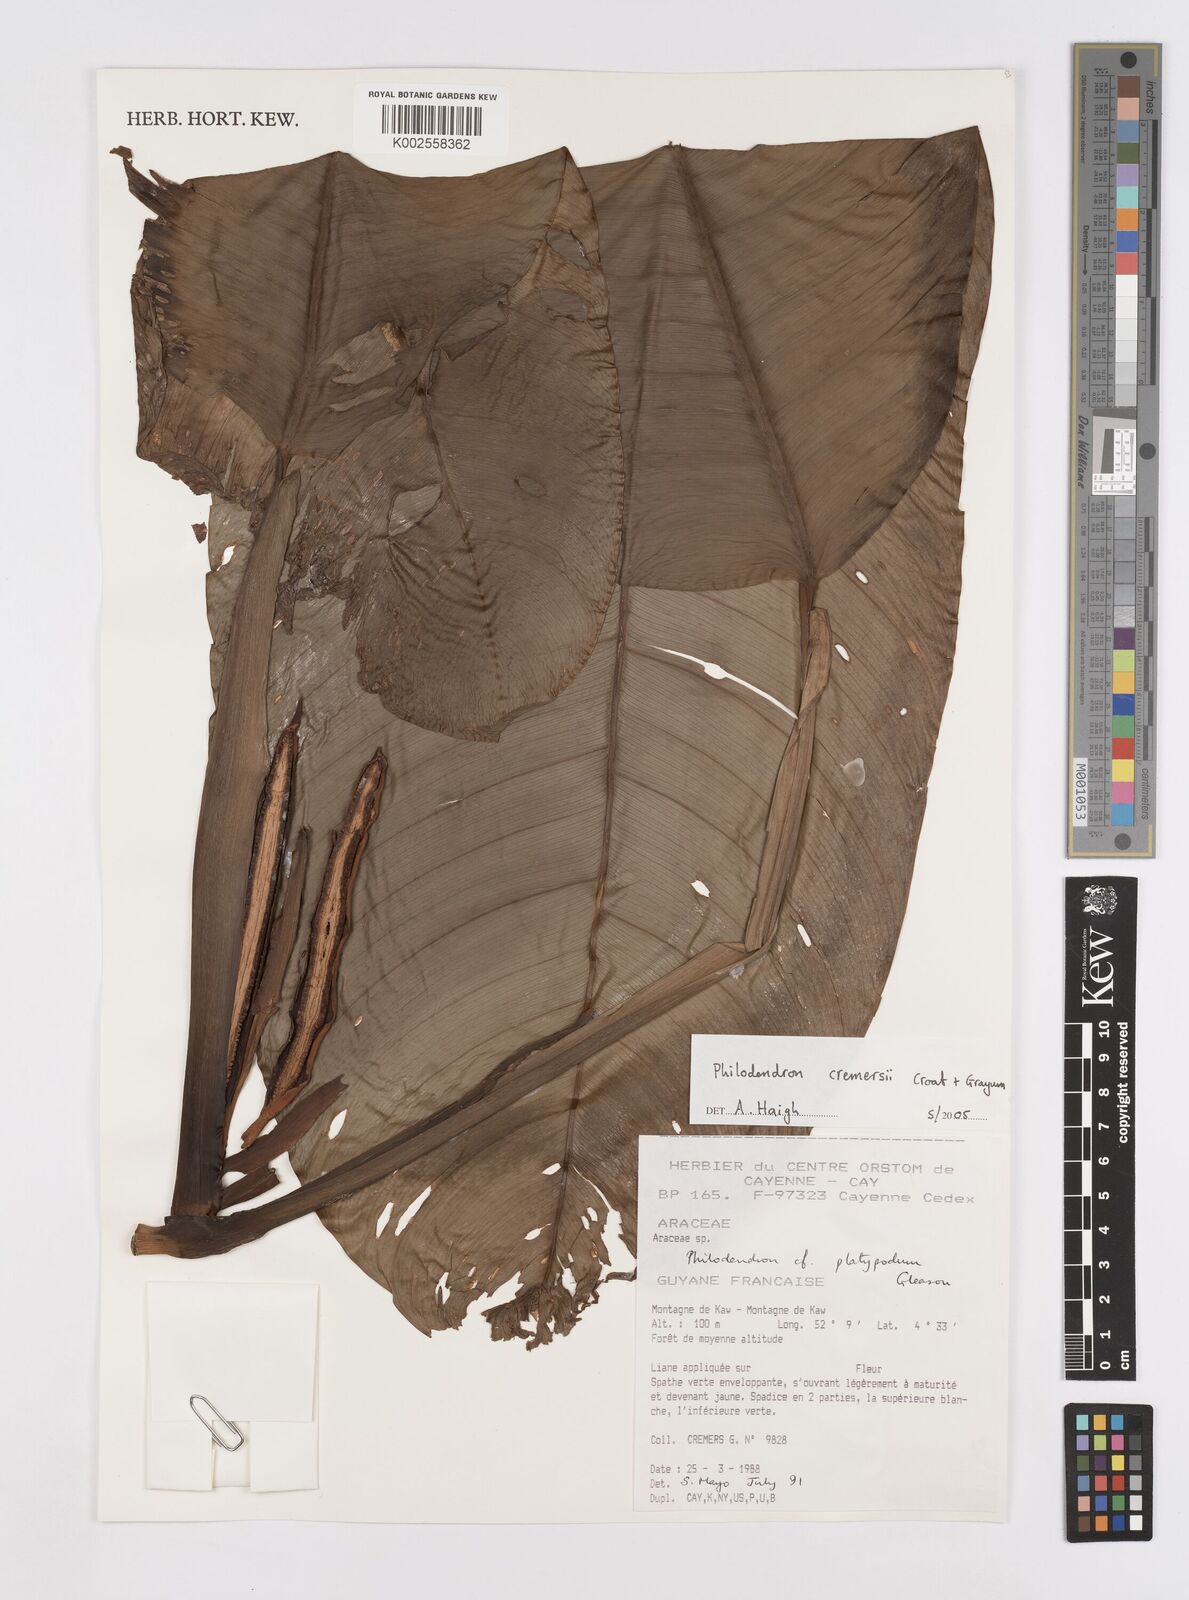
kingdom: Plantae
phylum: Tracheophyta
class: Liliopsida
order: Alismatales
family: Araceae
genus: Philodendron
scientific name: Philodendron cremersii
